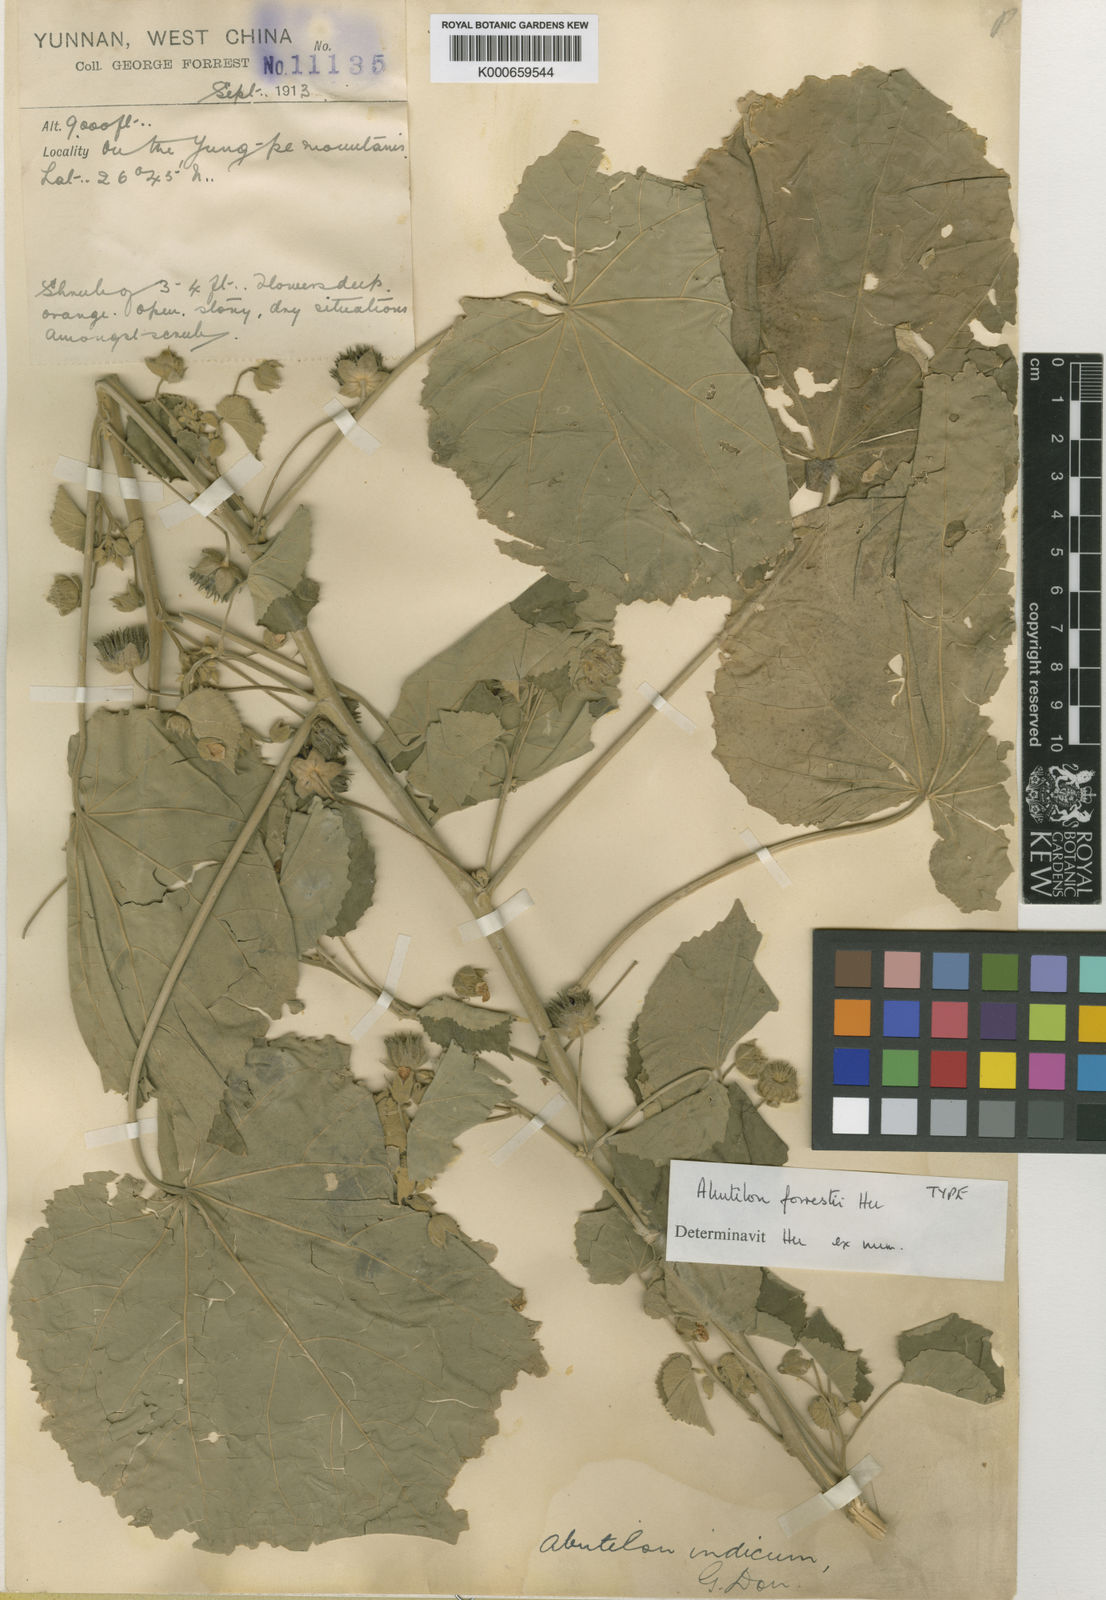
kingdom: Plantae
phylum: Tracheophyta
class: Magnoliopsida
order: Malvales
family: Malvaceae
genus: Abutilon
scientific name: Abutilon guineense
